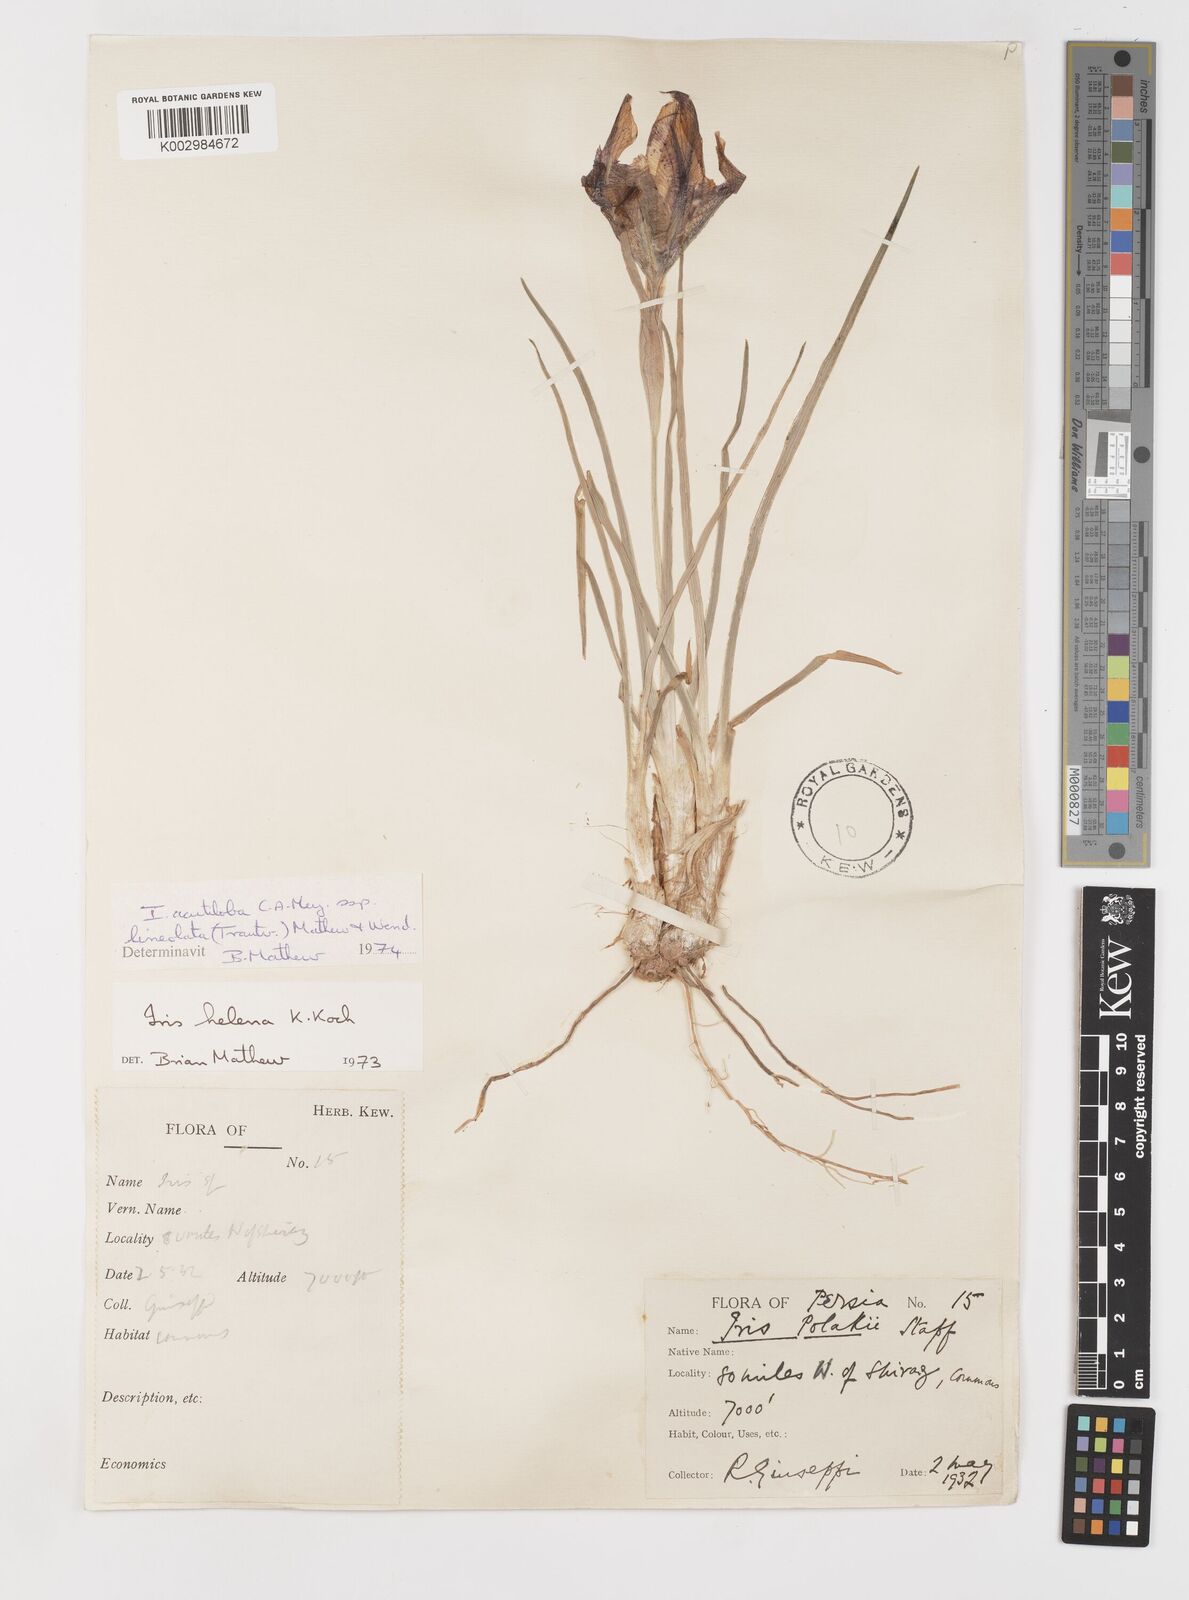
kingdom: Plantae
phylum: Tracheophyta
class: Liliopsida
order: Asparagales
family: Iridaceae
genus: Iris
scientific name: Iris acutiloba
